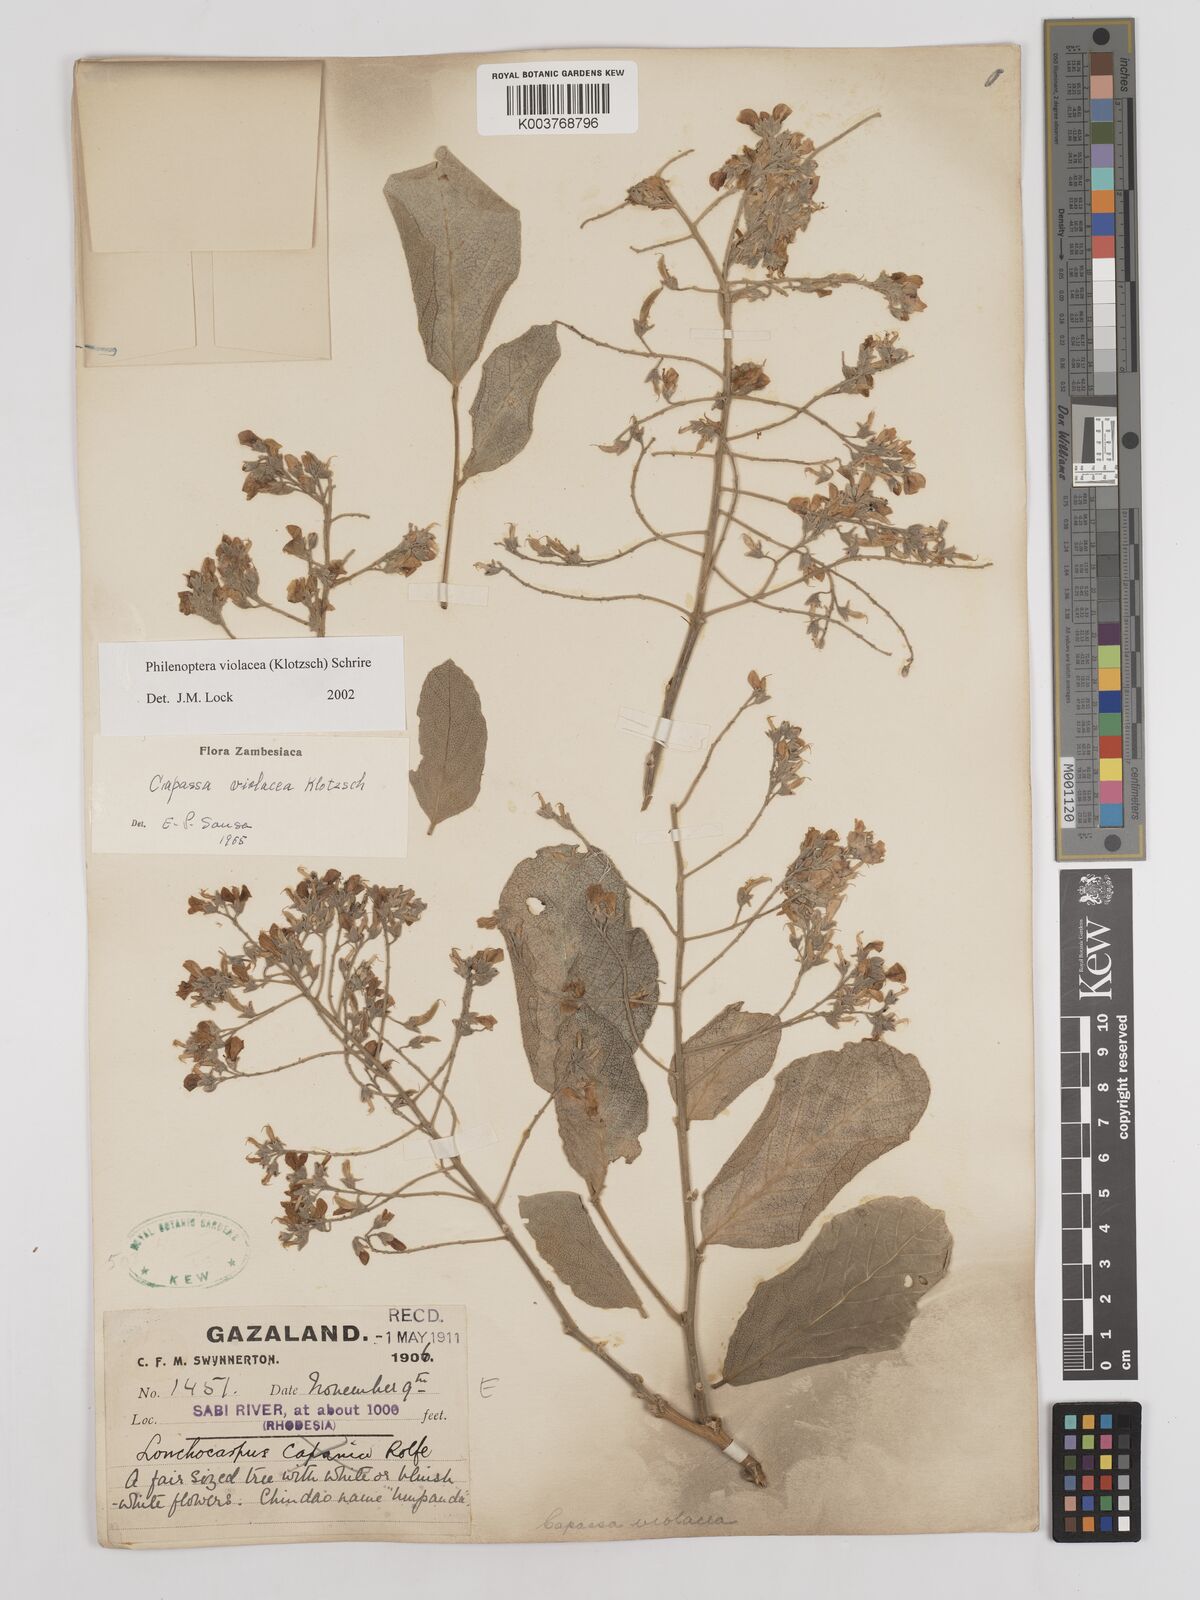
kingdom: Plantae
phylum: Tracheophyta
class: Magnoliopsida
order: Fabales
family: Fabaceae
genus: Philenoptera
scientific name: Philenoptera violacea
